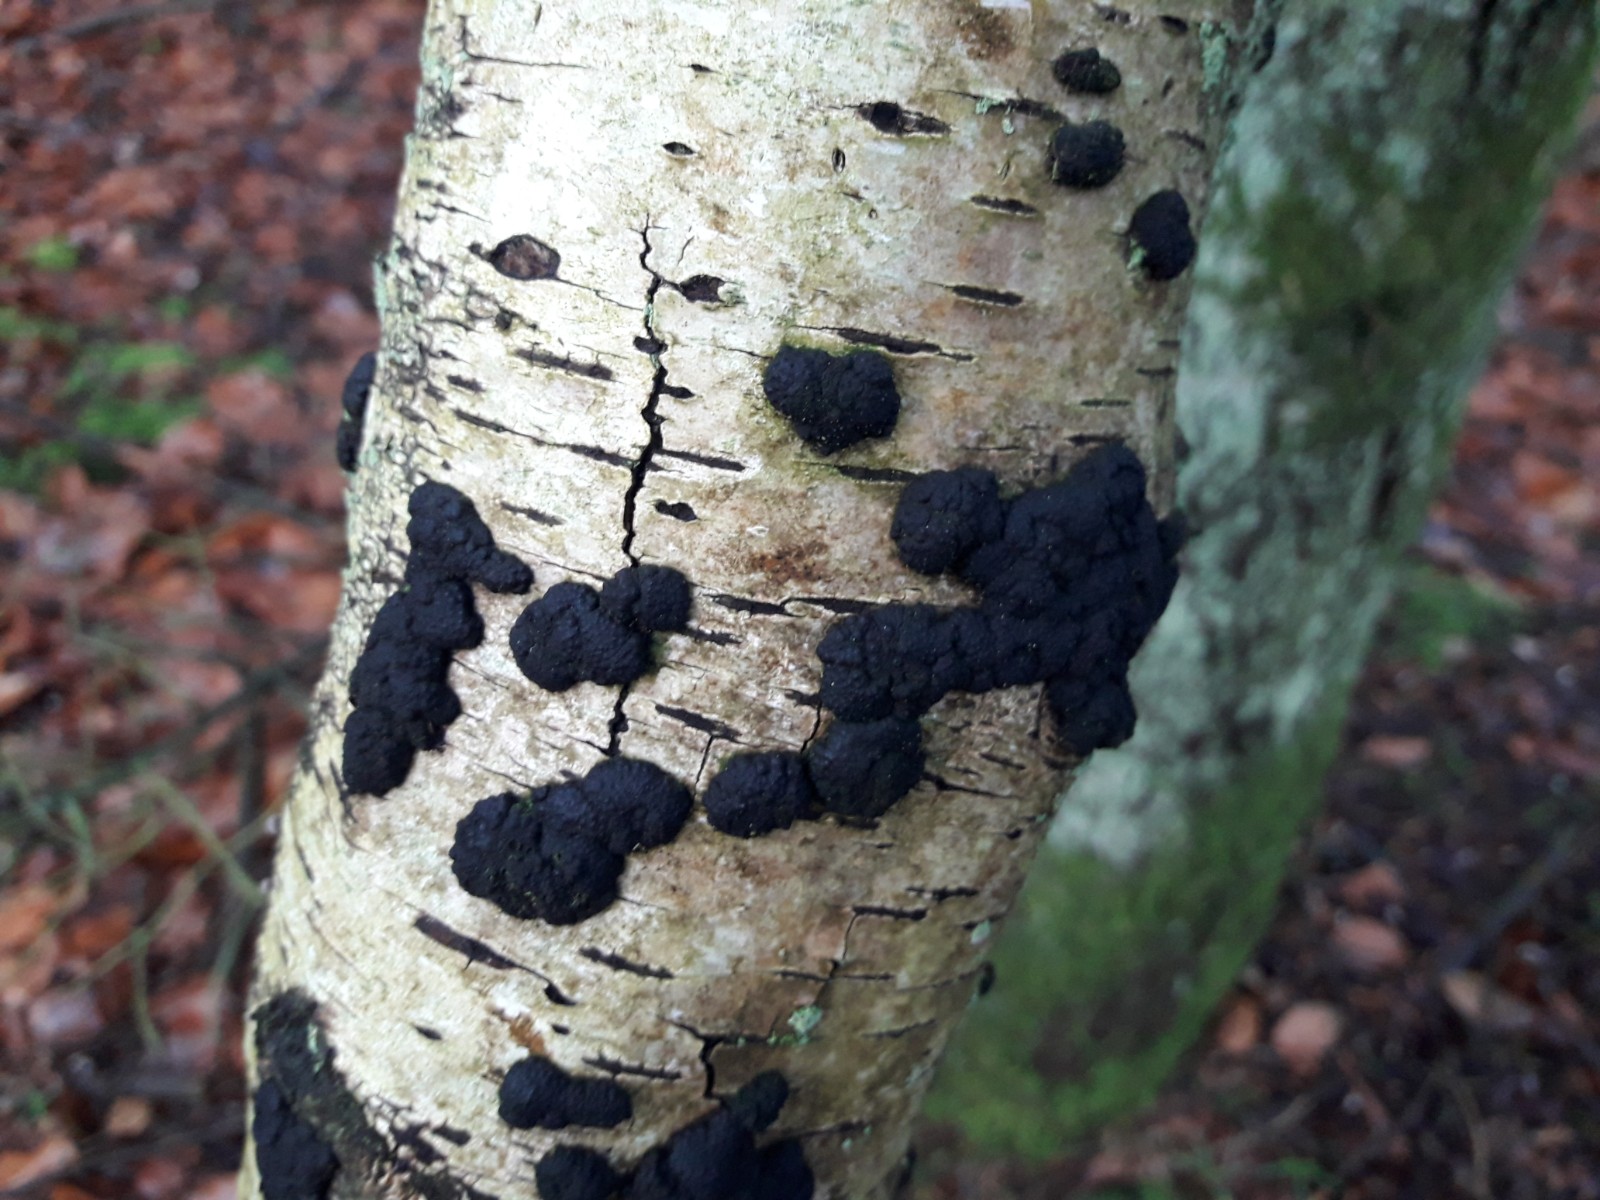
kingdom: Fungi
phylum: Ascomycota
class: Sordariomycetes
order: Xylariales
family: Hypoxylaceae
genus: Jackrogersella
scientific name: Jackrogersella multiformis
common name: foranderlig kulbær
